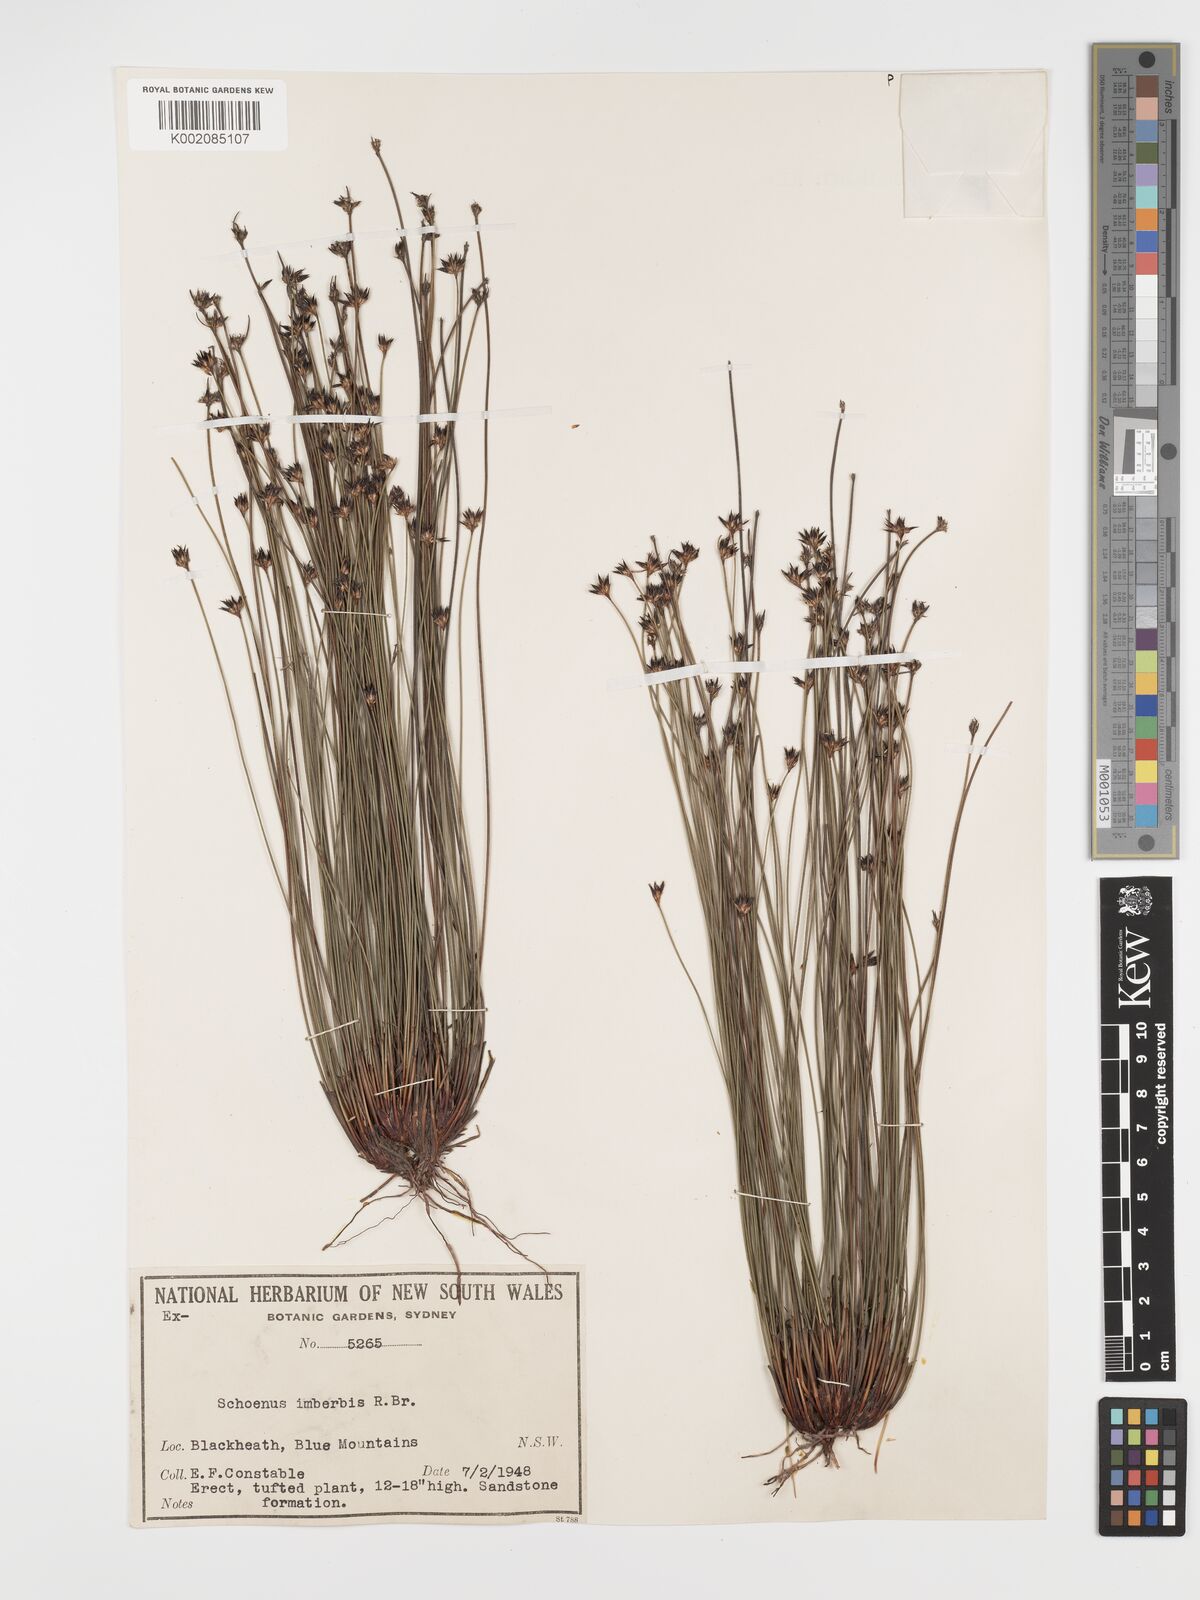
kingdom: Plantae
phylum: Tracheophyta
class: Liliopsida
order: Poales
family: Cyperaceae
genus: Schoenus
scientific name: Schoenus imberbis
